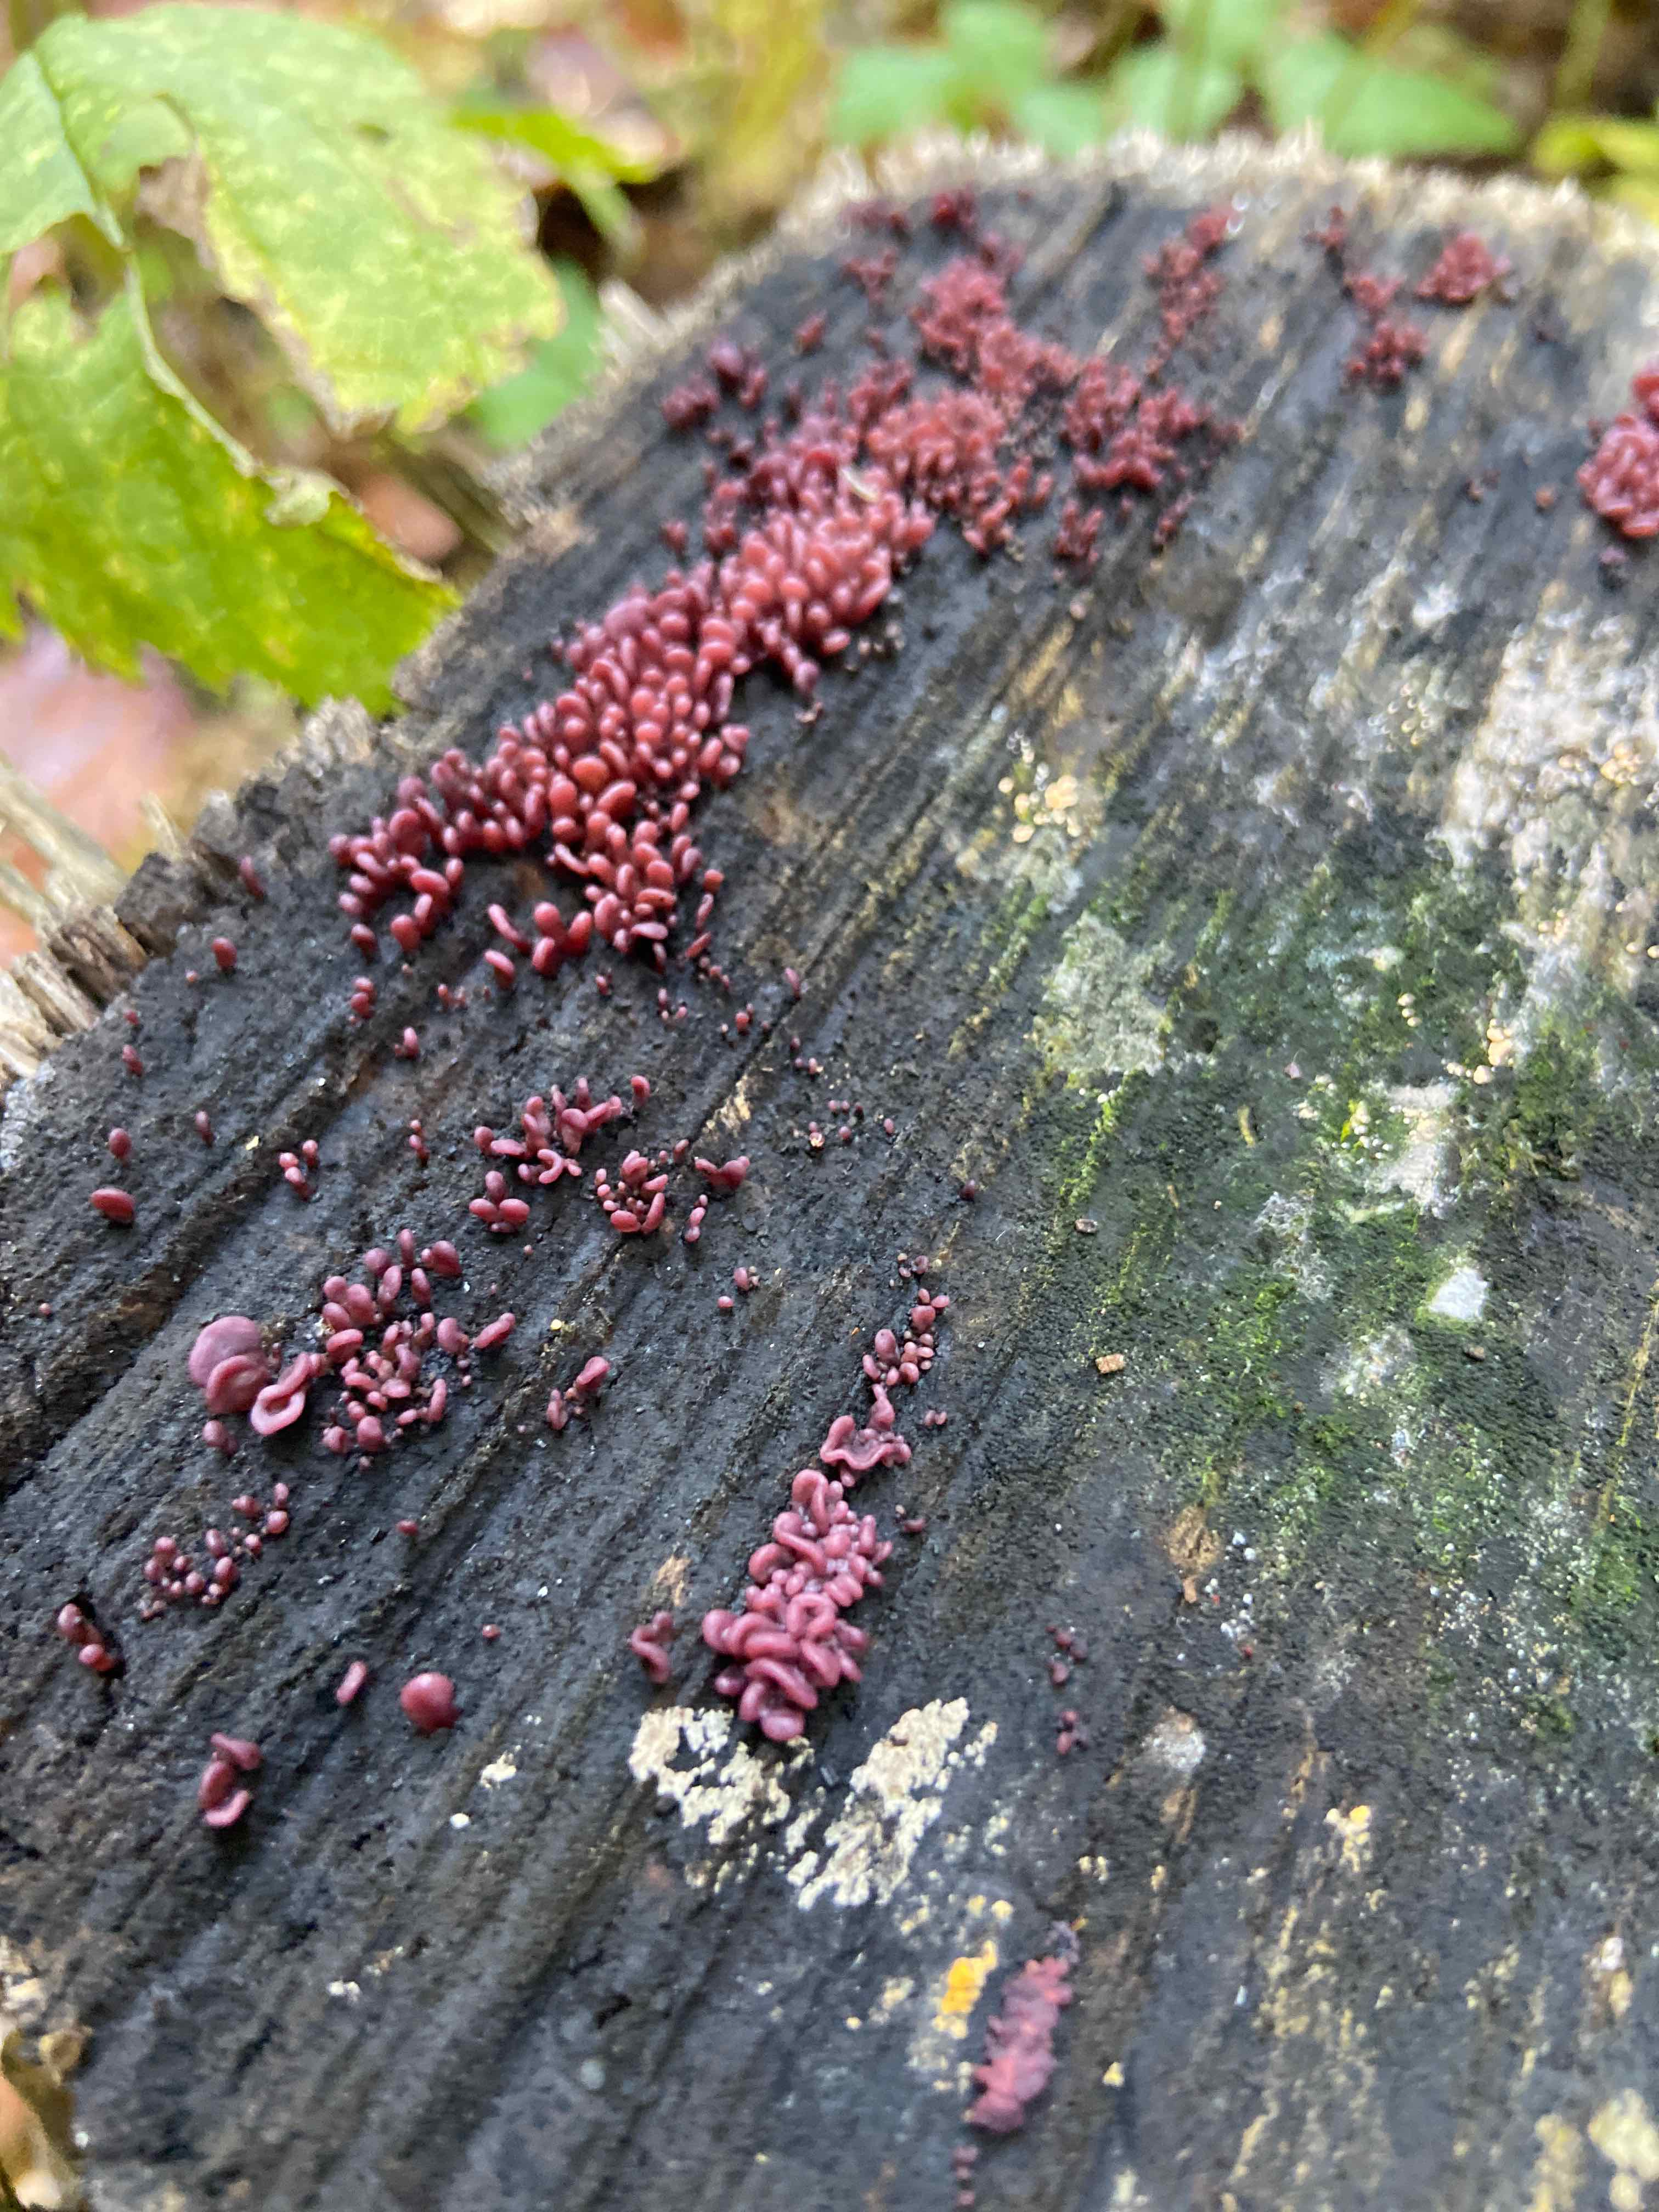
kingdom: Fungi
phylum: Ascomycota
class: Leotiomycetes
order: Helotiales
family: Gelatinodiscaceae
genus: Ascocoryne
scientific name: Ascocoryne sarcoides
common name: rødlilla sejskive
